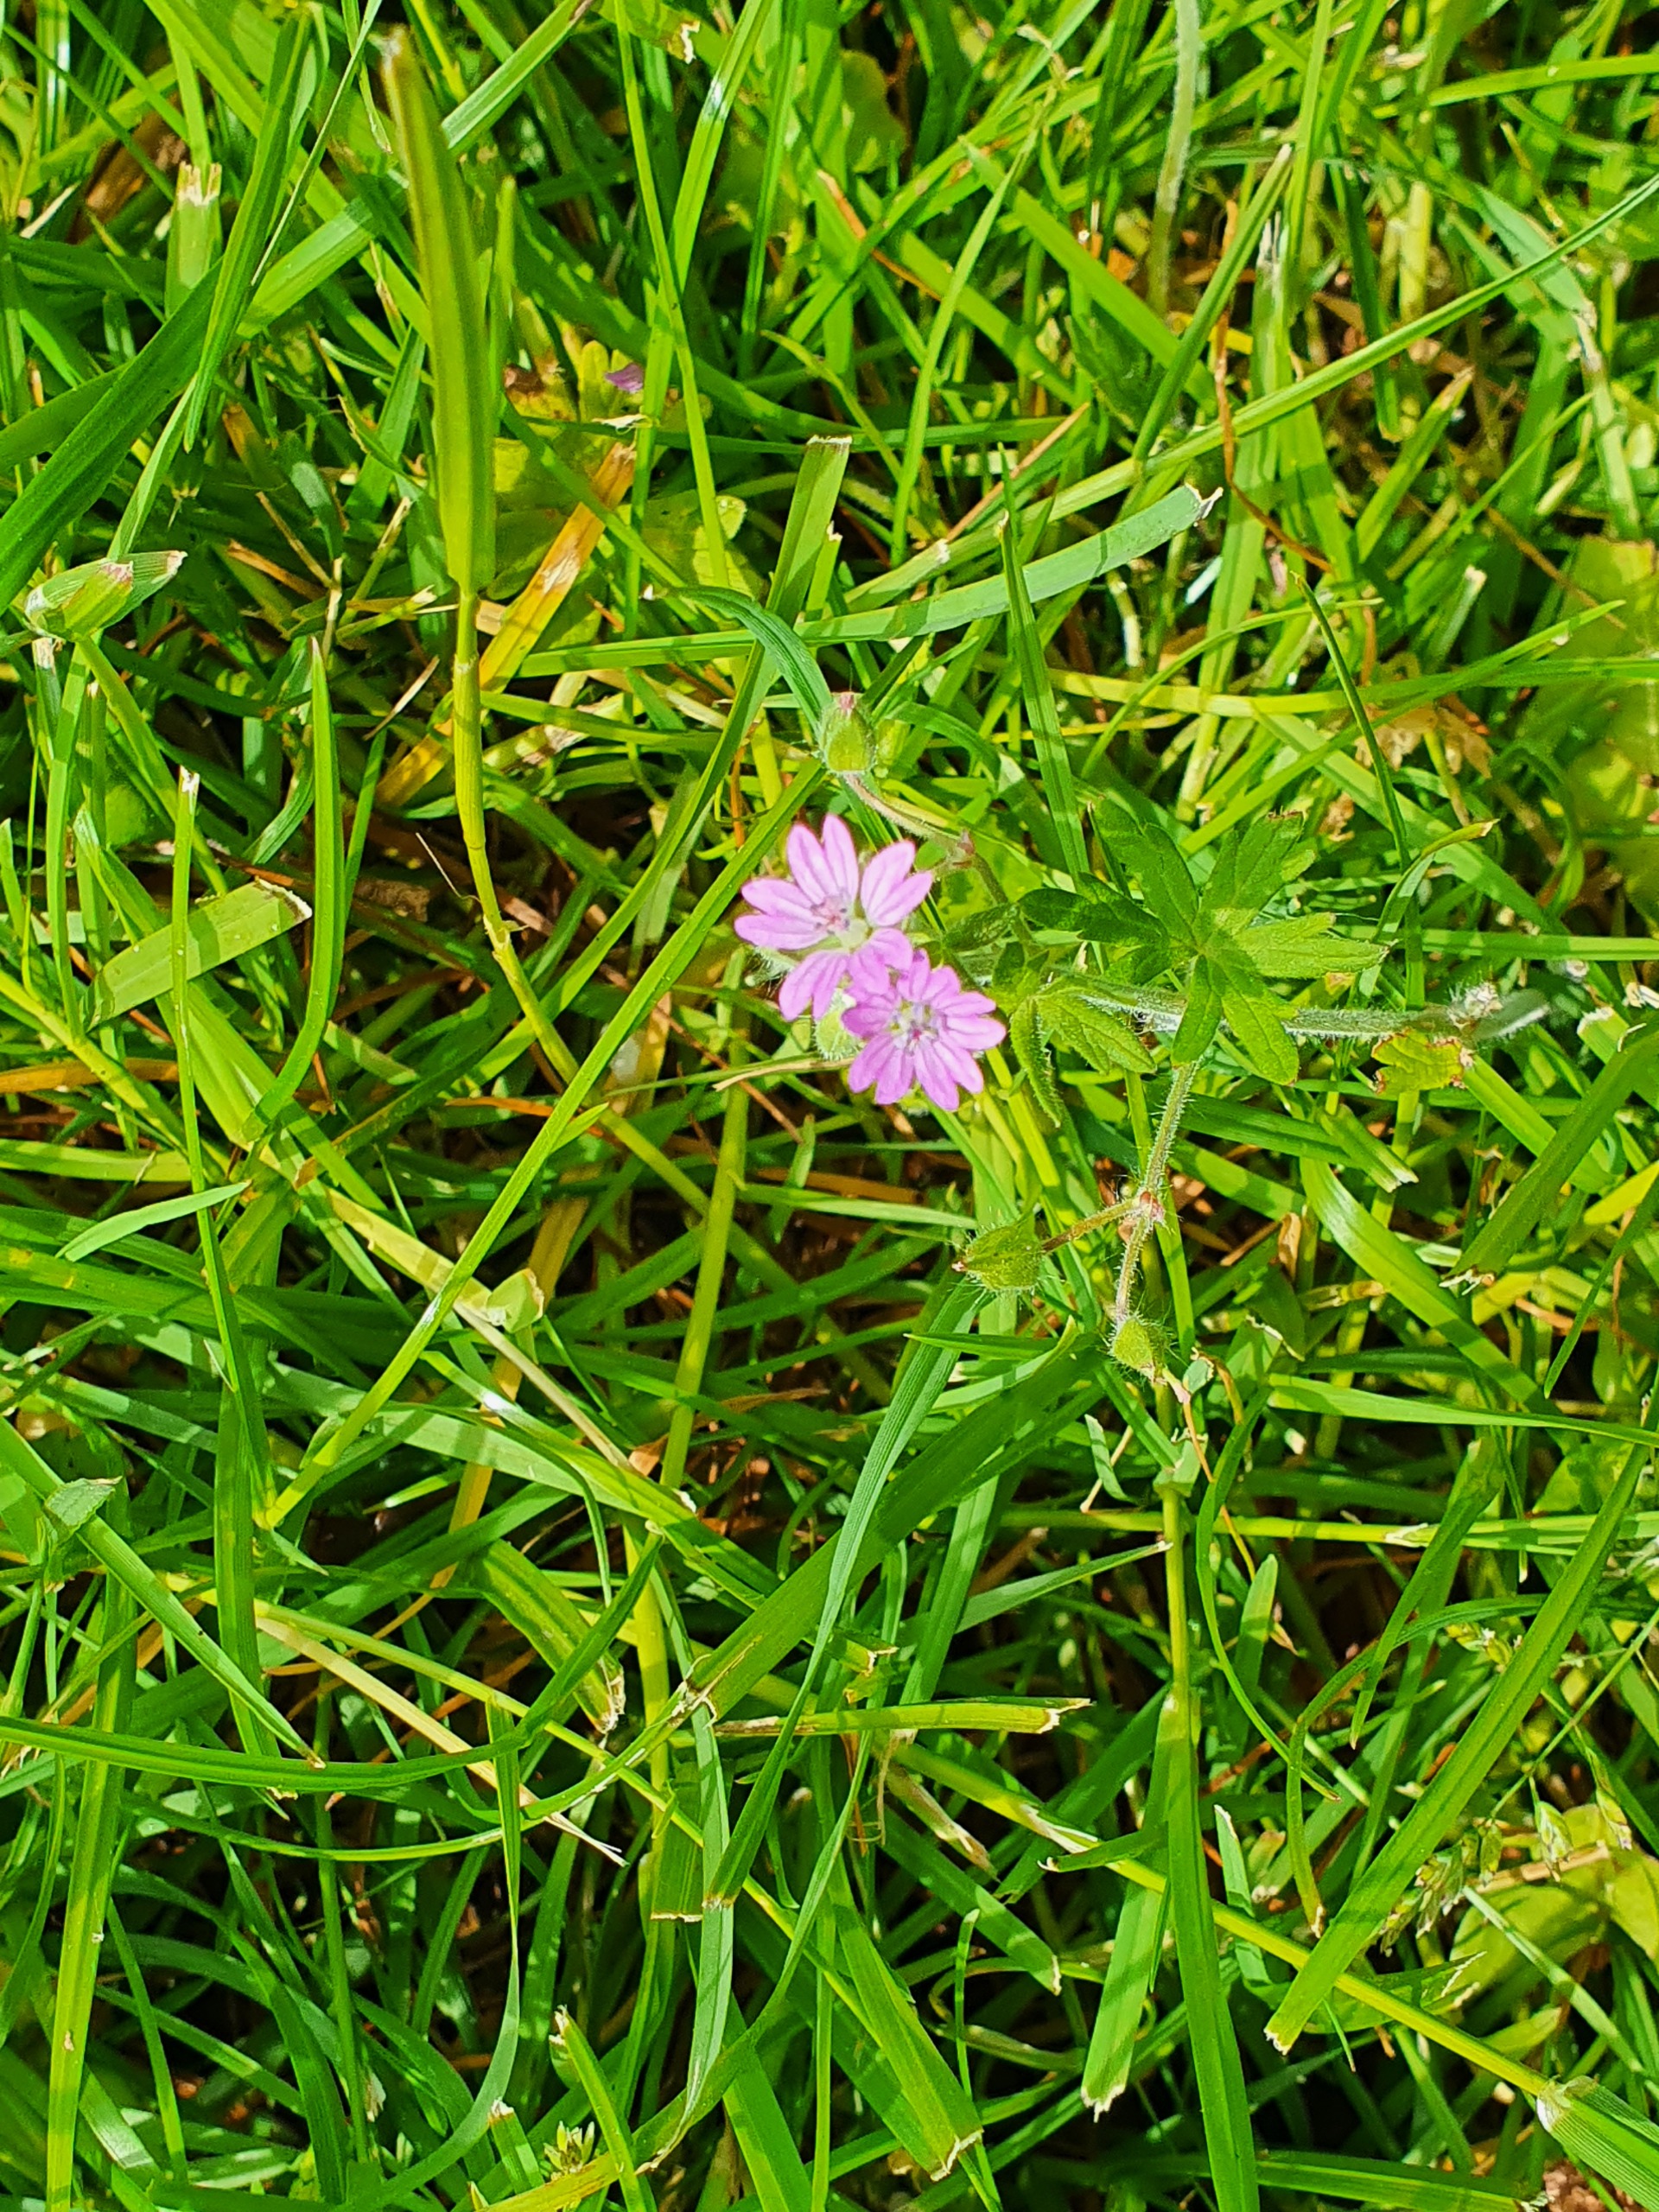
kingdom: Plantae
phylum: Tracheophyta
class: Magnoliopsida
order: Geraniales
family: Geraniaceae
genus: Geranium
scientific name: Geranium pyrenaicum
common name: Pyrenæisk storkenæb
